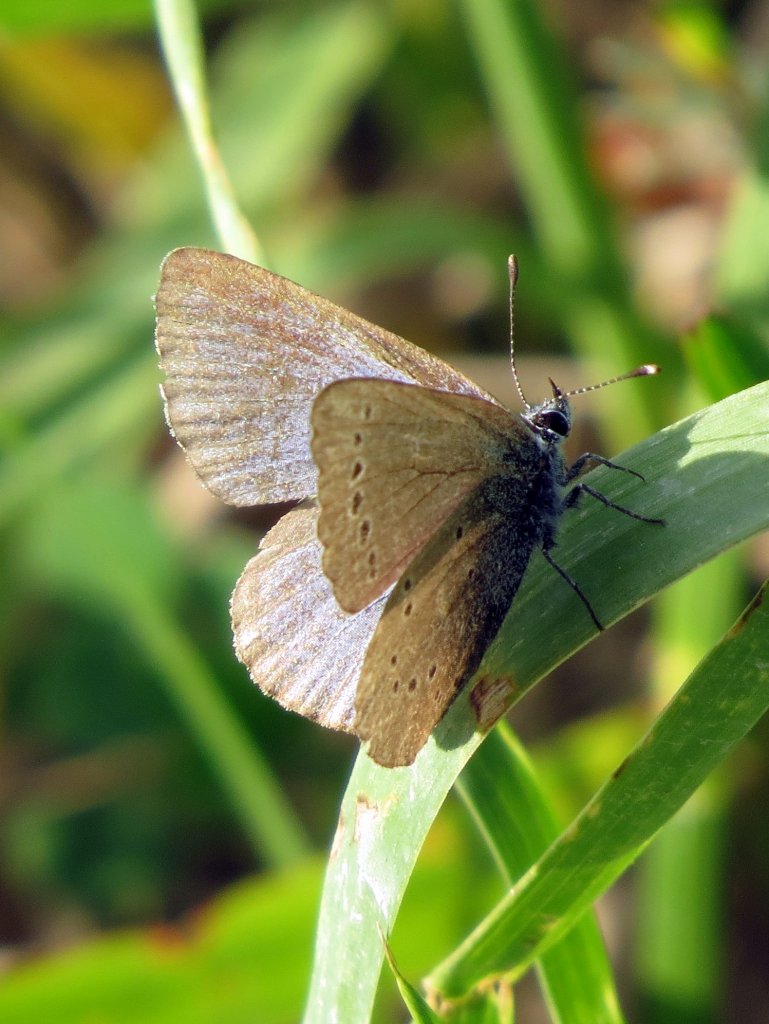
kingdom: Animalia
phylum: Arthropoda
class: Insecta
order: Lepidoptera
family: Lycaenidae
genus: Glaucopsyche
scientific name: Glaucopsyche lygdamus
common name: Silvery Blue
